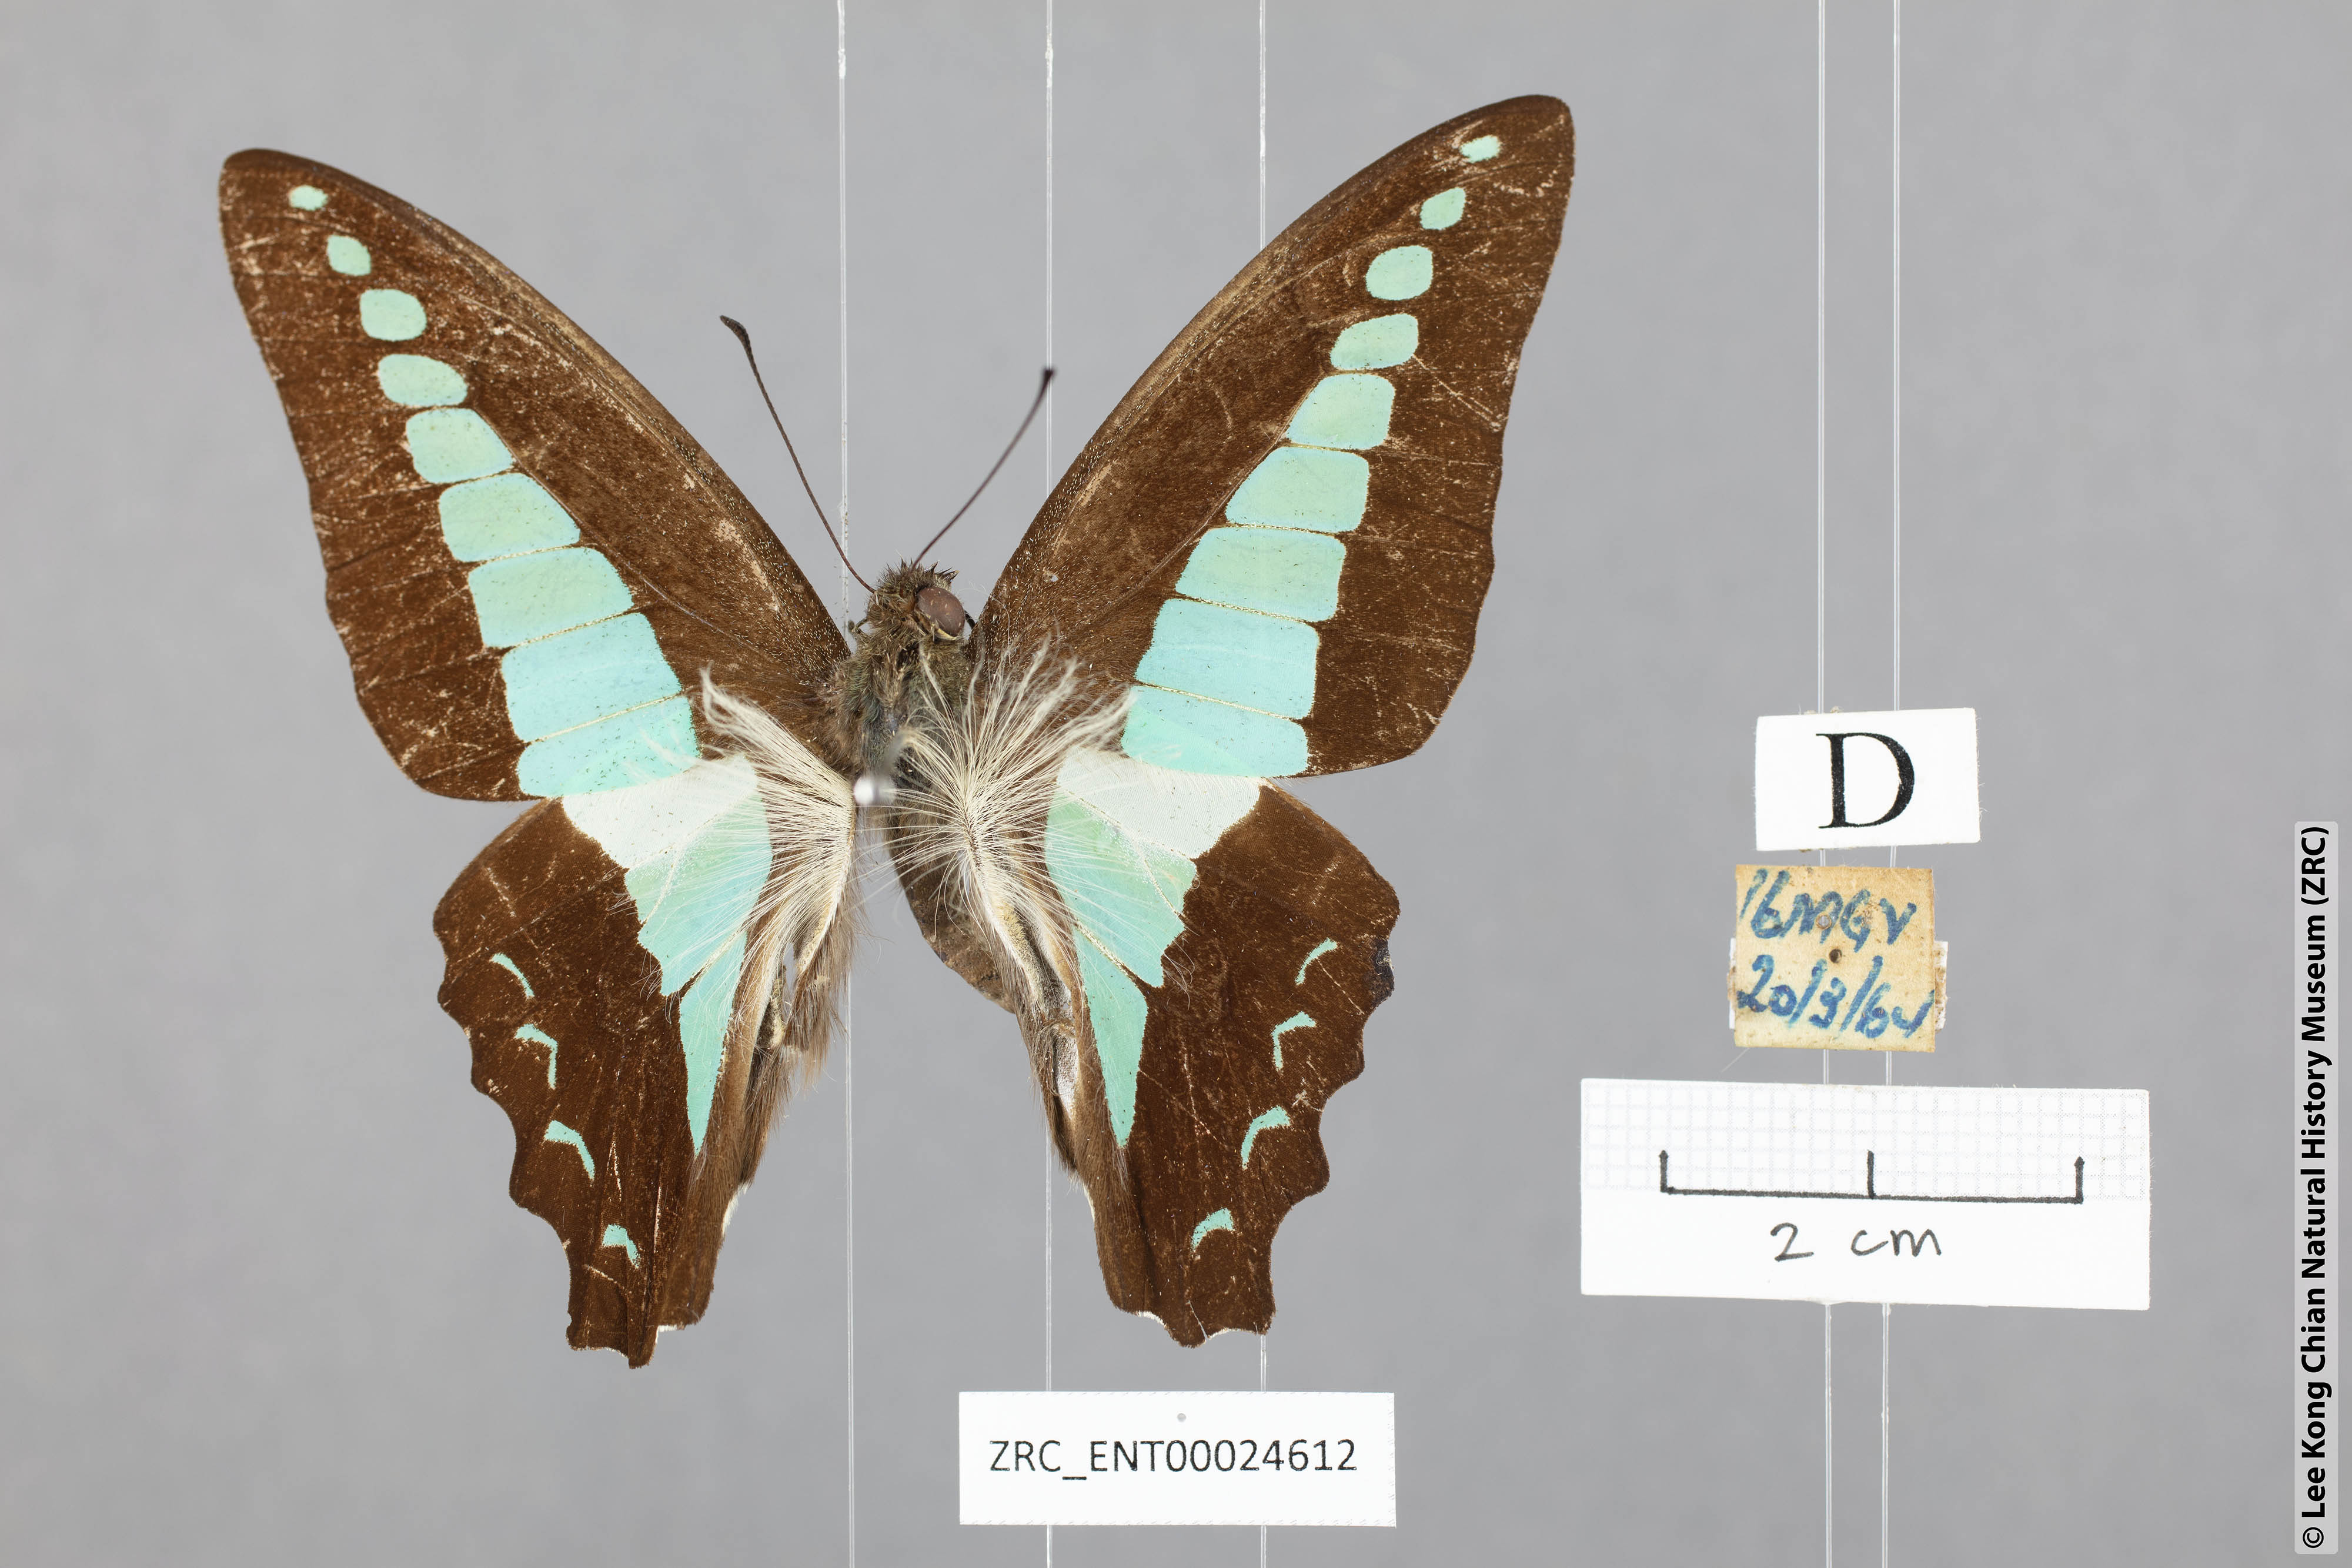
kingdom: Fungi
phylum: Ascomycota
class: Sordariomycetes
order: Microascales
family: Microascaceae
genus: Graphium
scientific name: Graphium sarpedon
